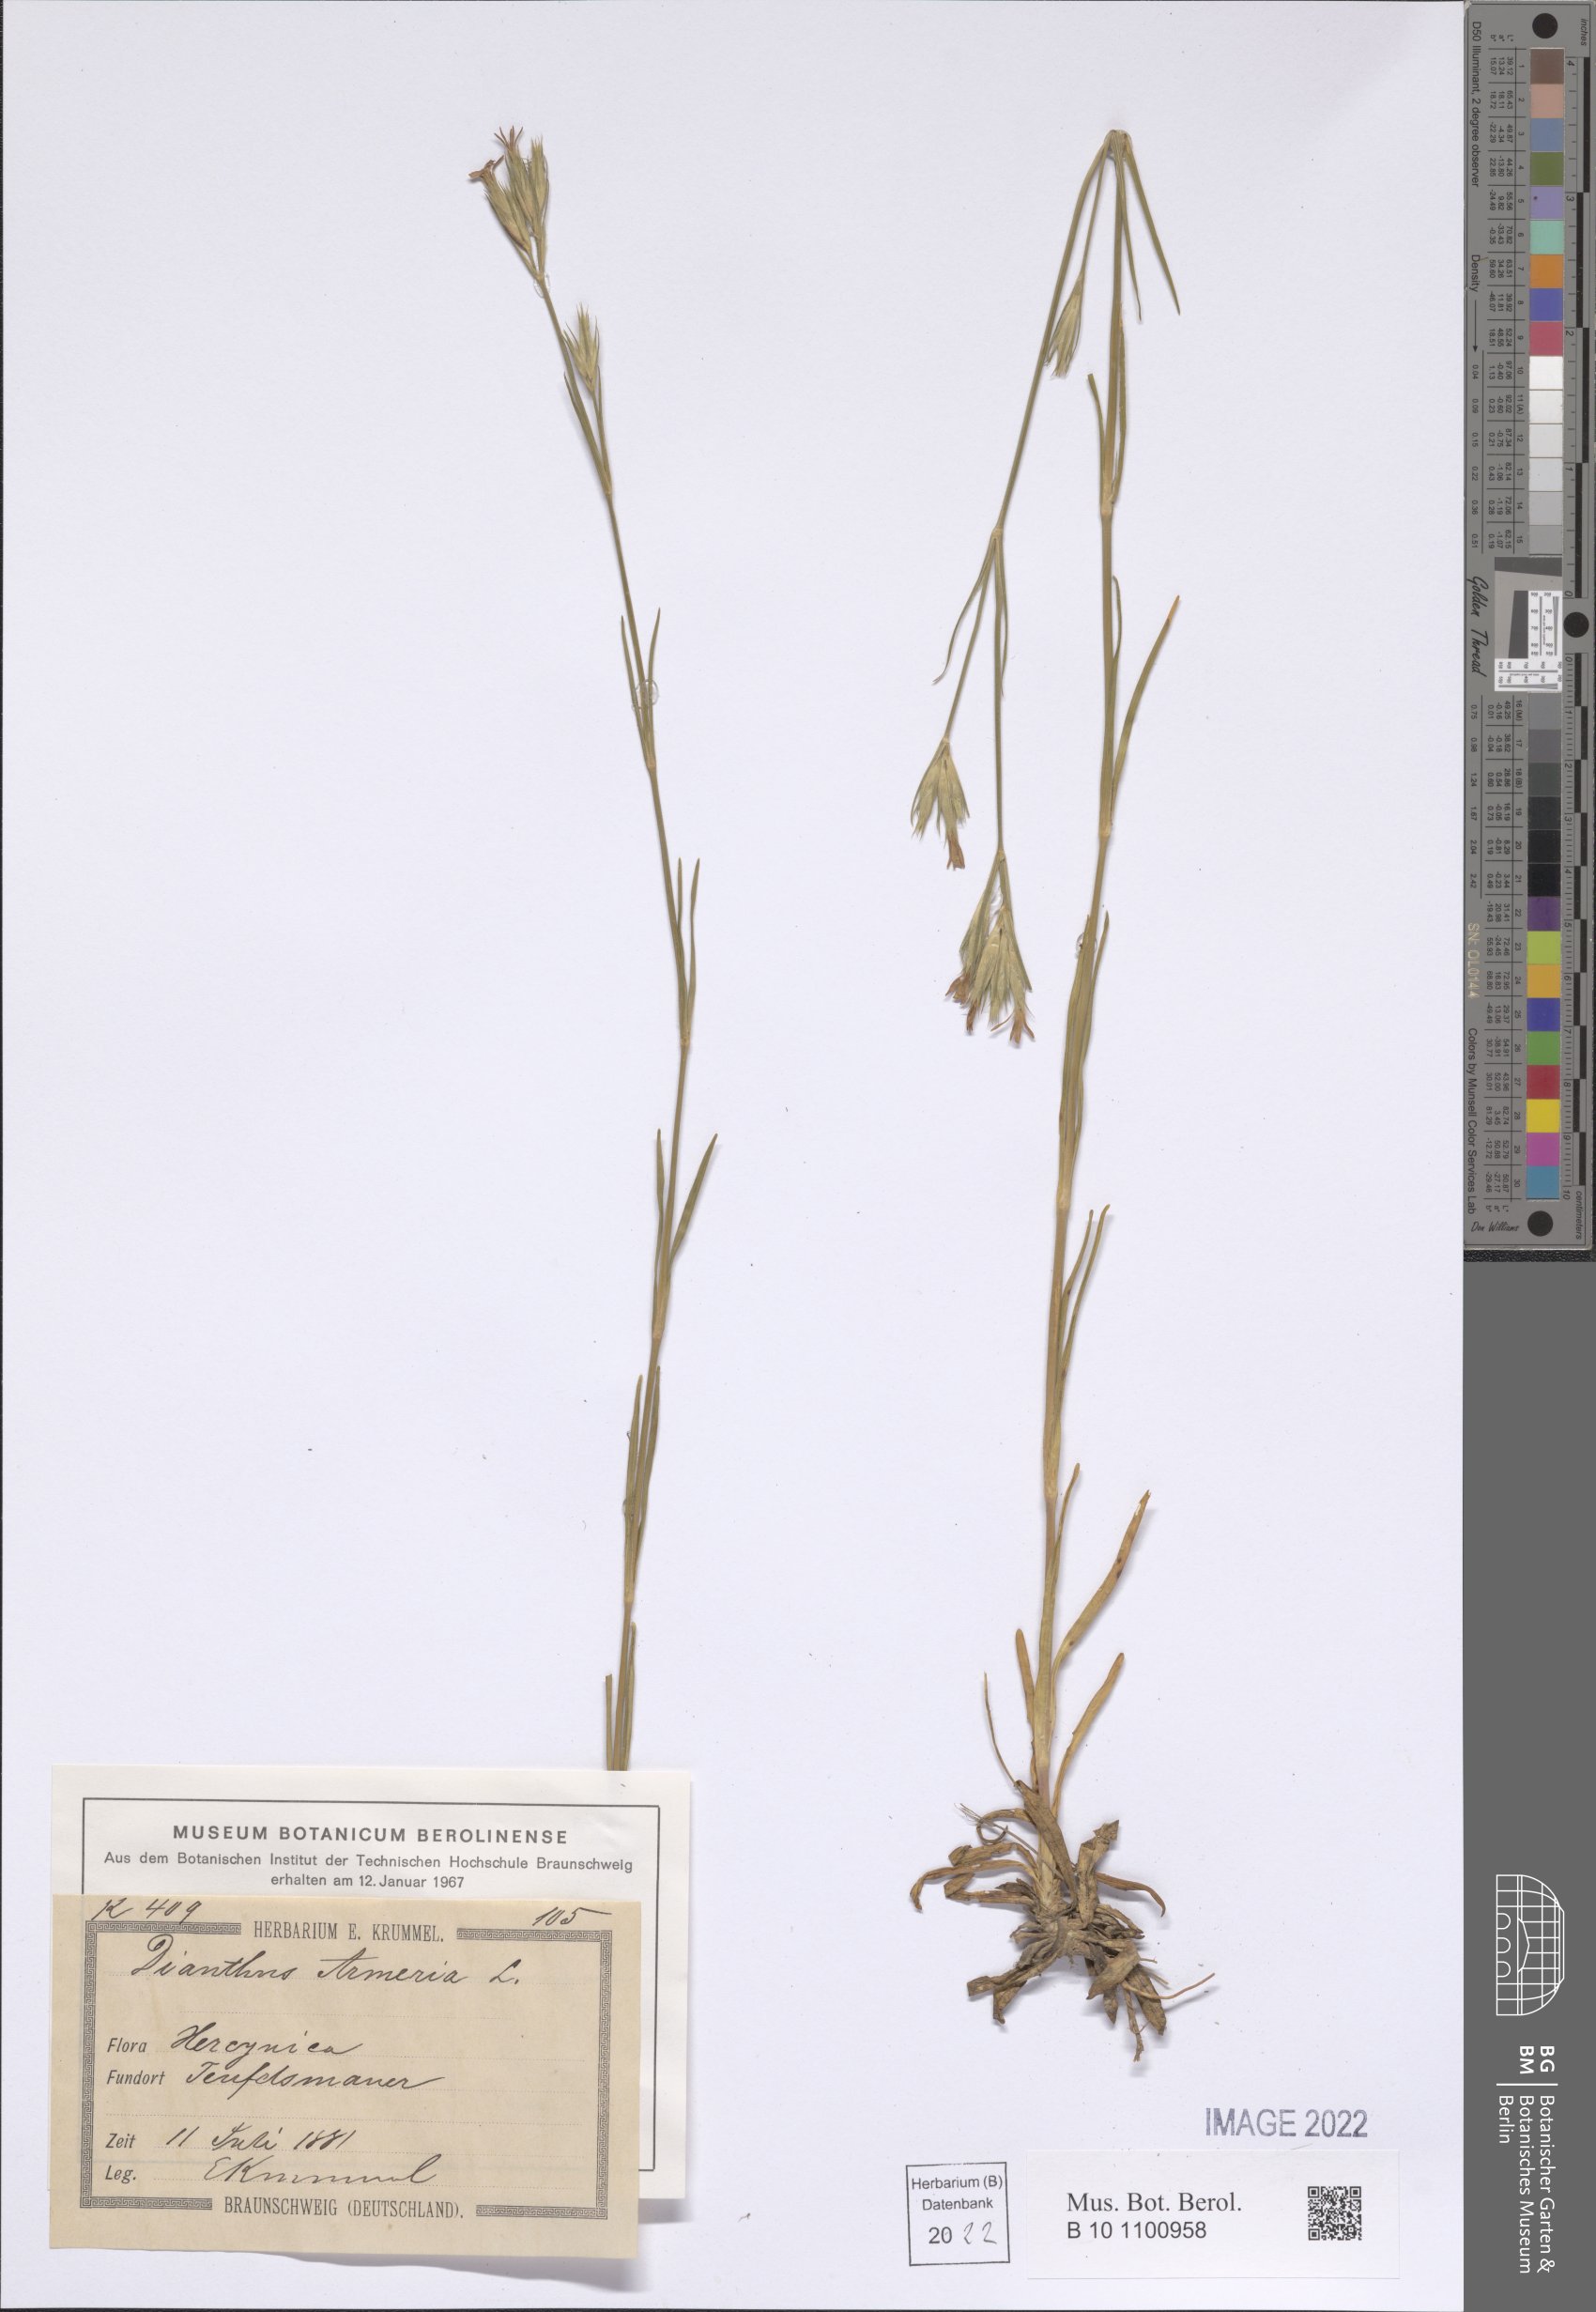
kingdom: Plantae
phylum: Tracheophyta
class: Magnoliopsida
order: Caryophyllales
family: Caryophyllaceae
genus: Dianthus
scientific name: Dianthus armeria
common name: Deptford pink
